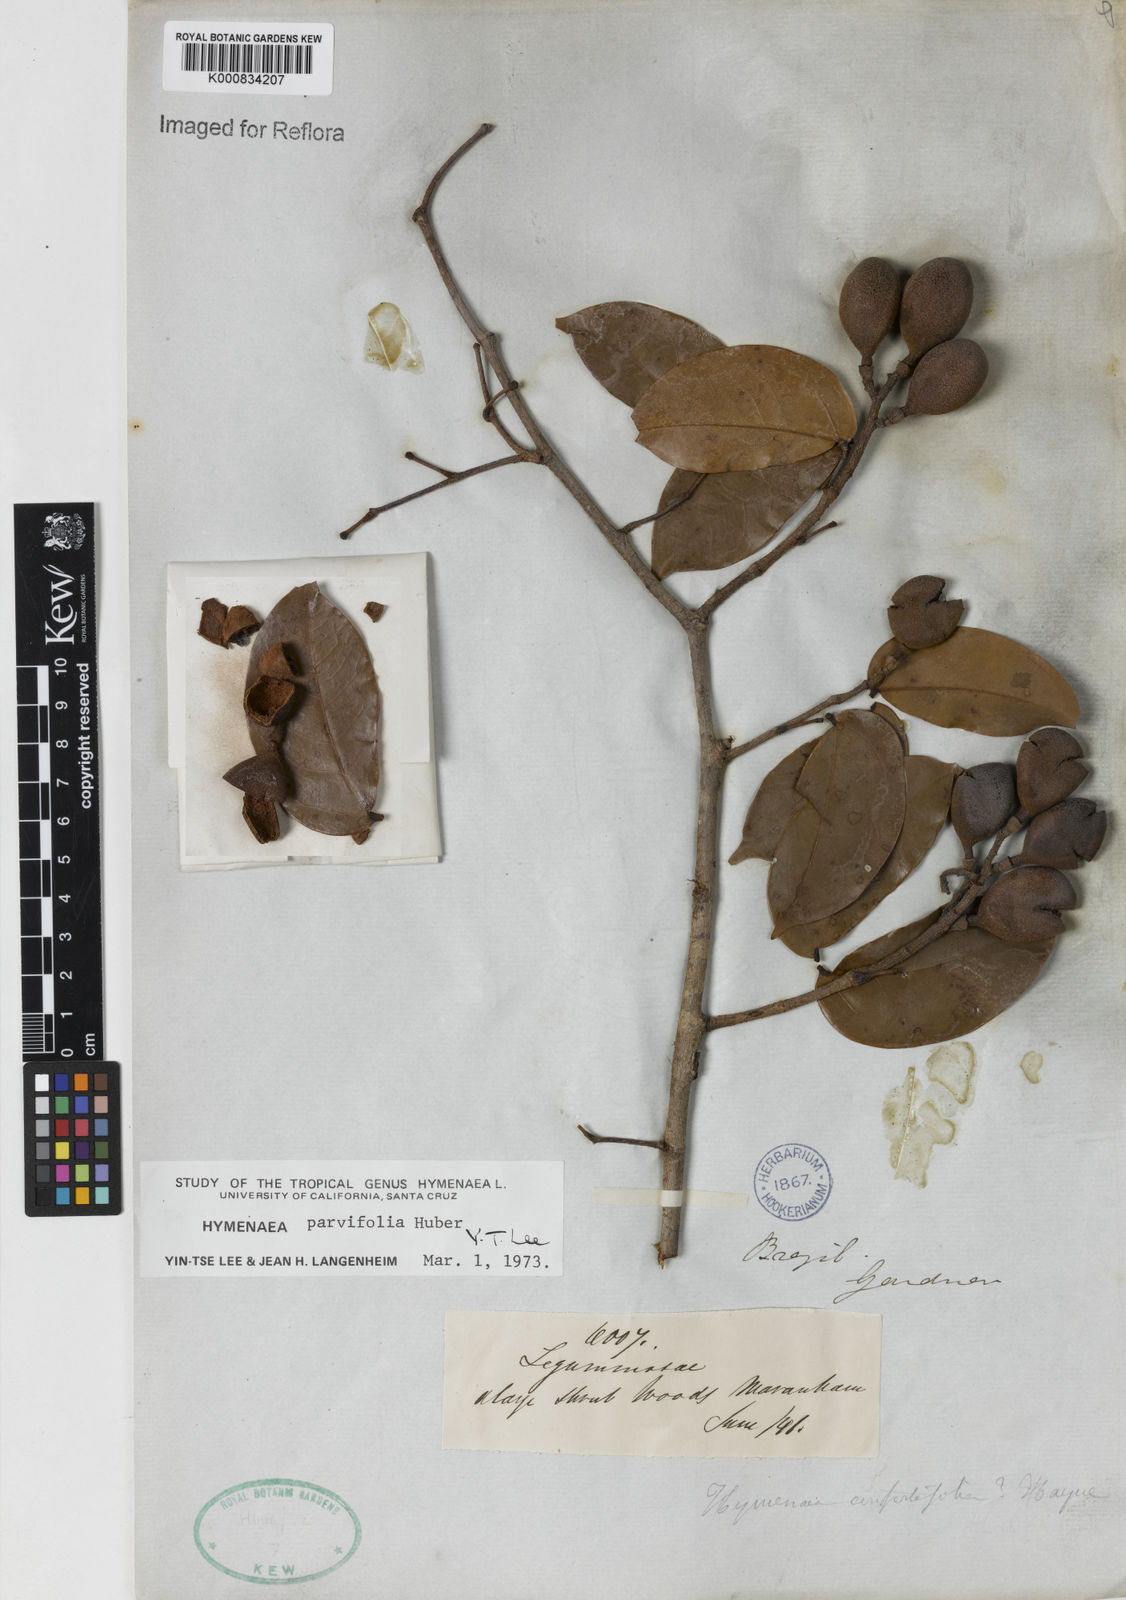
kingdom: Plantae
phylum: Tracheophyta
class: Magnoliopsida
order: Fabales
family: Fabaceae
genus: Hymenaea
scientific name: Hymenaea parvifolia
